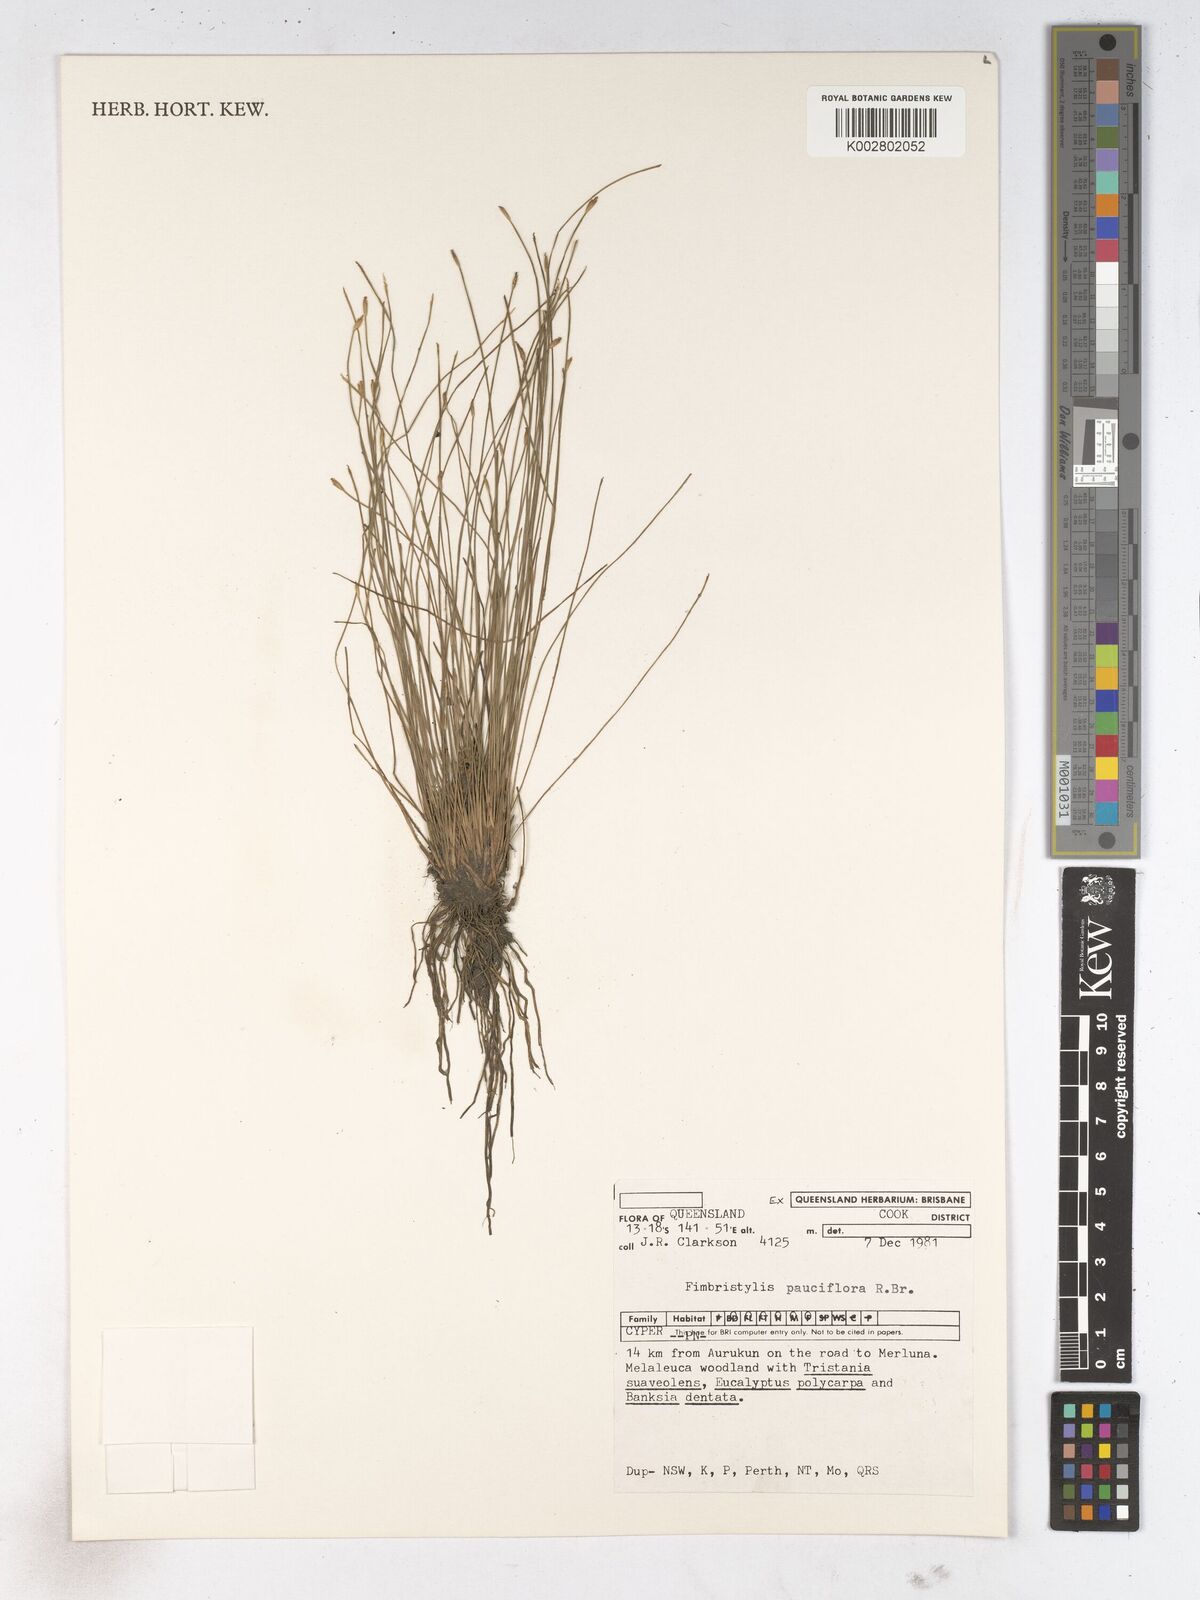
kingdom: Plantae
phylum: Tracheophyta
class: Liliopsida
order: Poales
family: Cyperaceae
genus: Fimbristylis
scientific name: Fimbristylis pauciflora
